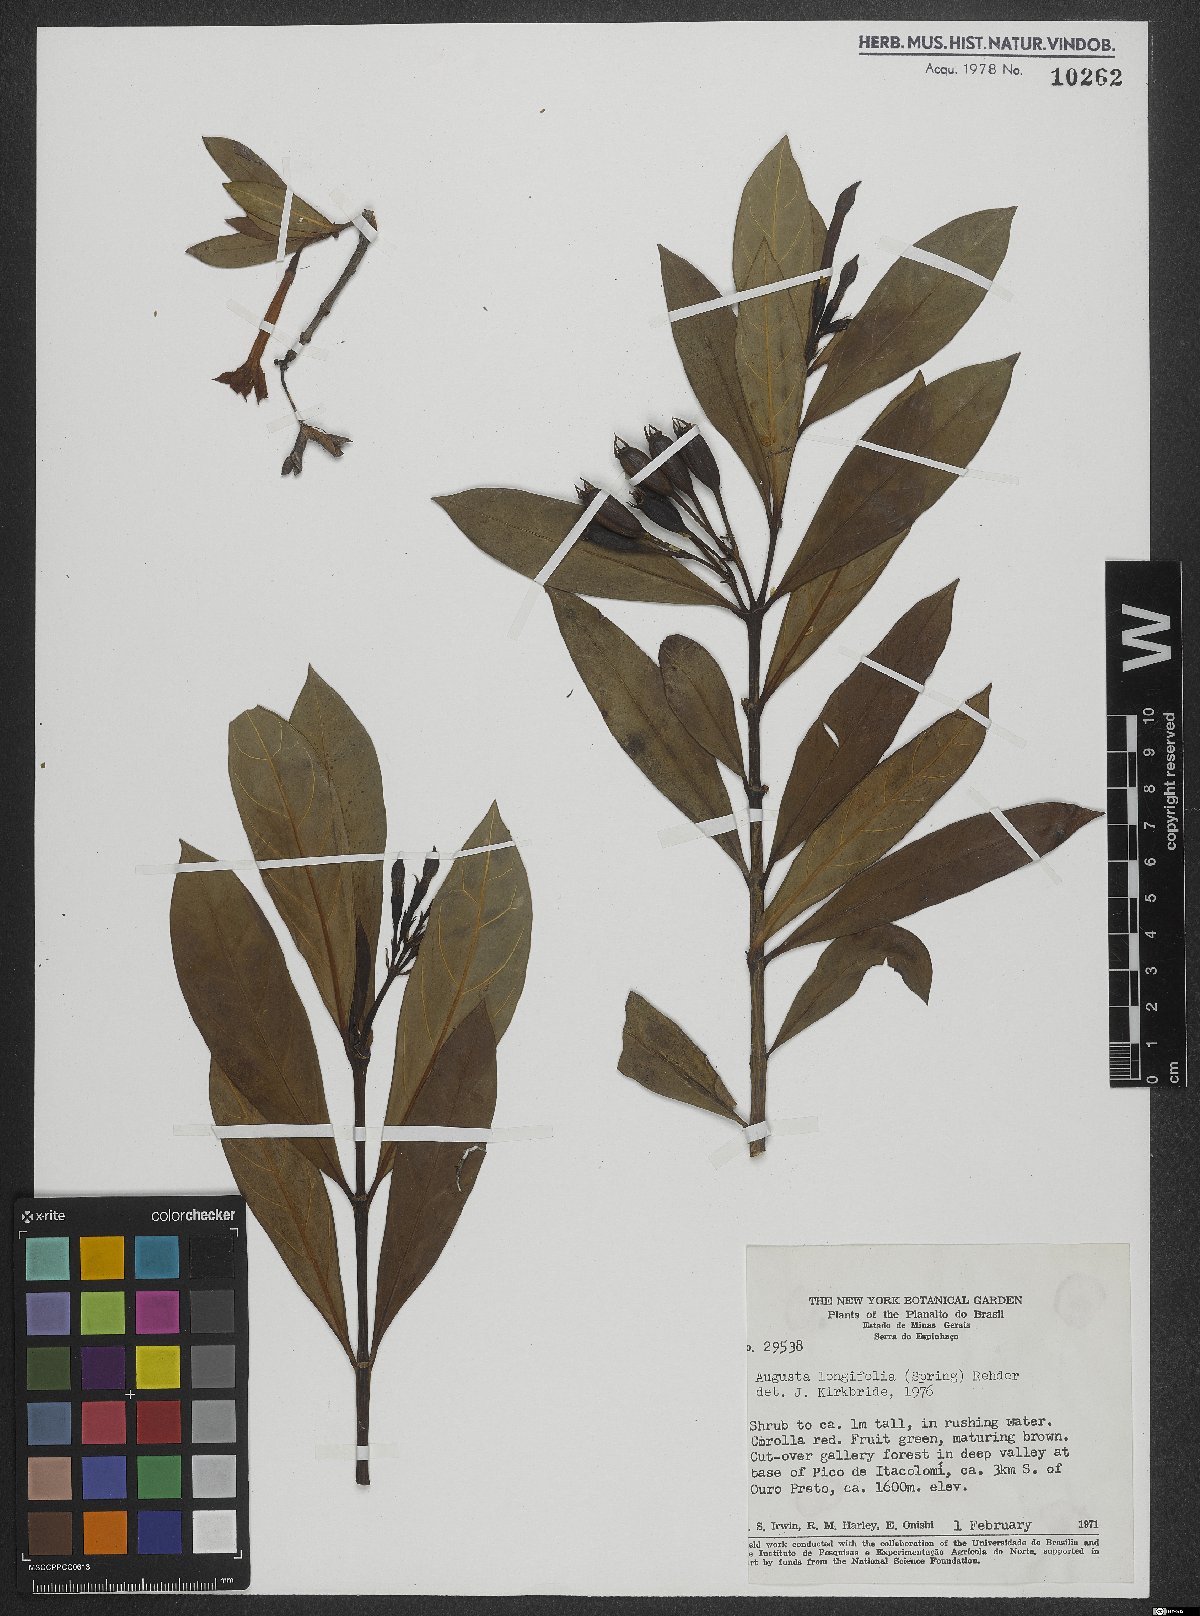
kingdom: Plantae
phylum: Tracheophyta
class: Magnoliopsida
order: Gentianales
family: Rubiaceae
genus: Augusta
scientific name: Augusta longifolia
